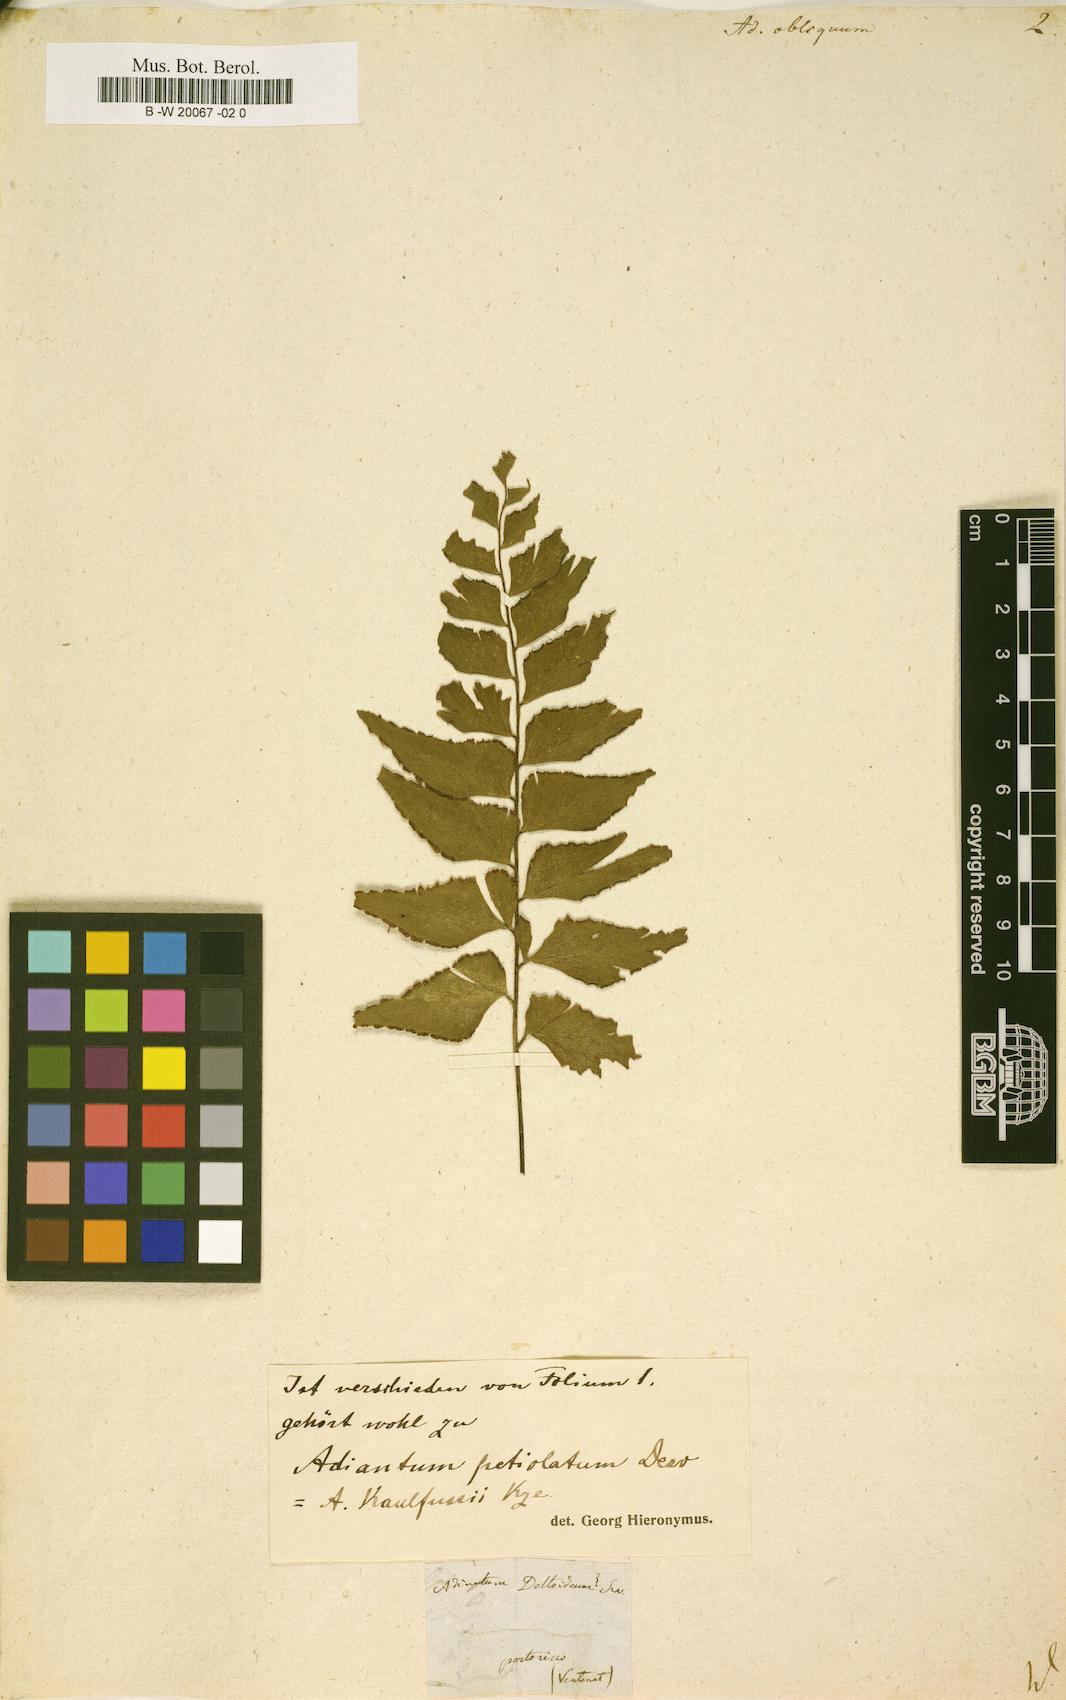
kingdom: Plantae
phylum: Tracheophyta
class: Polypodiopsida
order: Polypodiales
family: Pteridaceae
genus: Adiantum
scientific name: Adiantum obliquum
